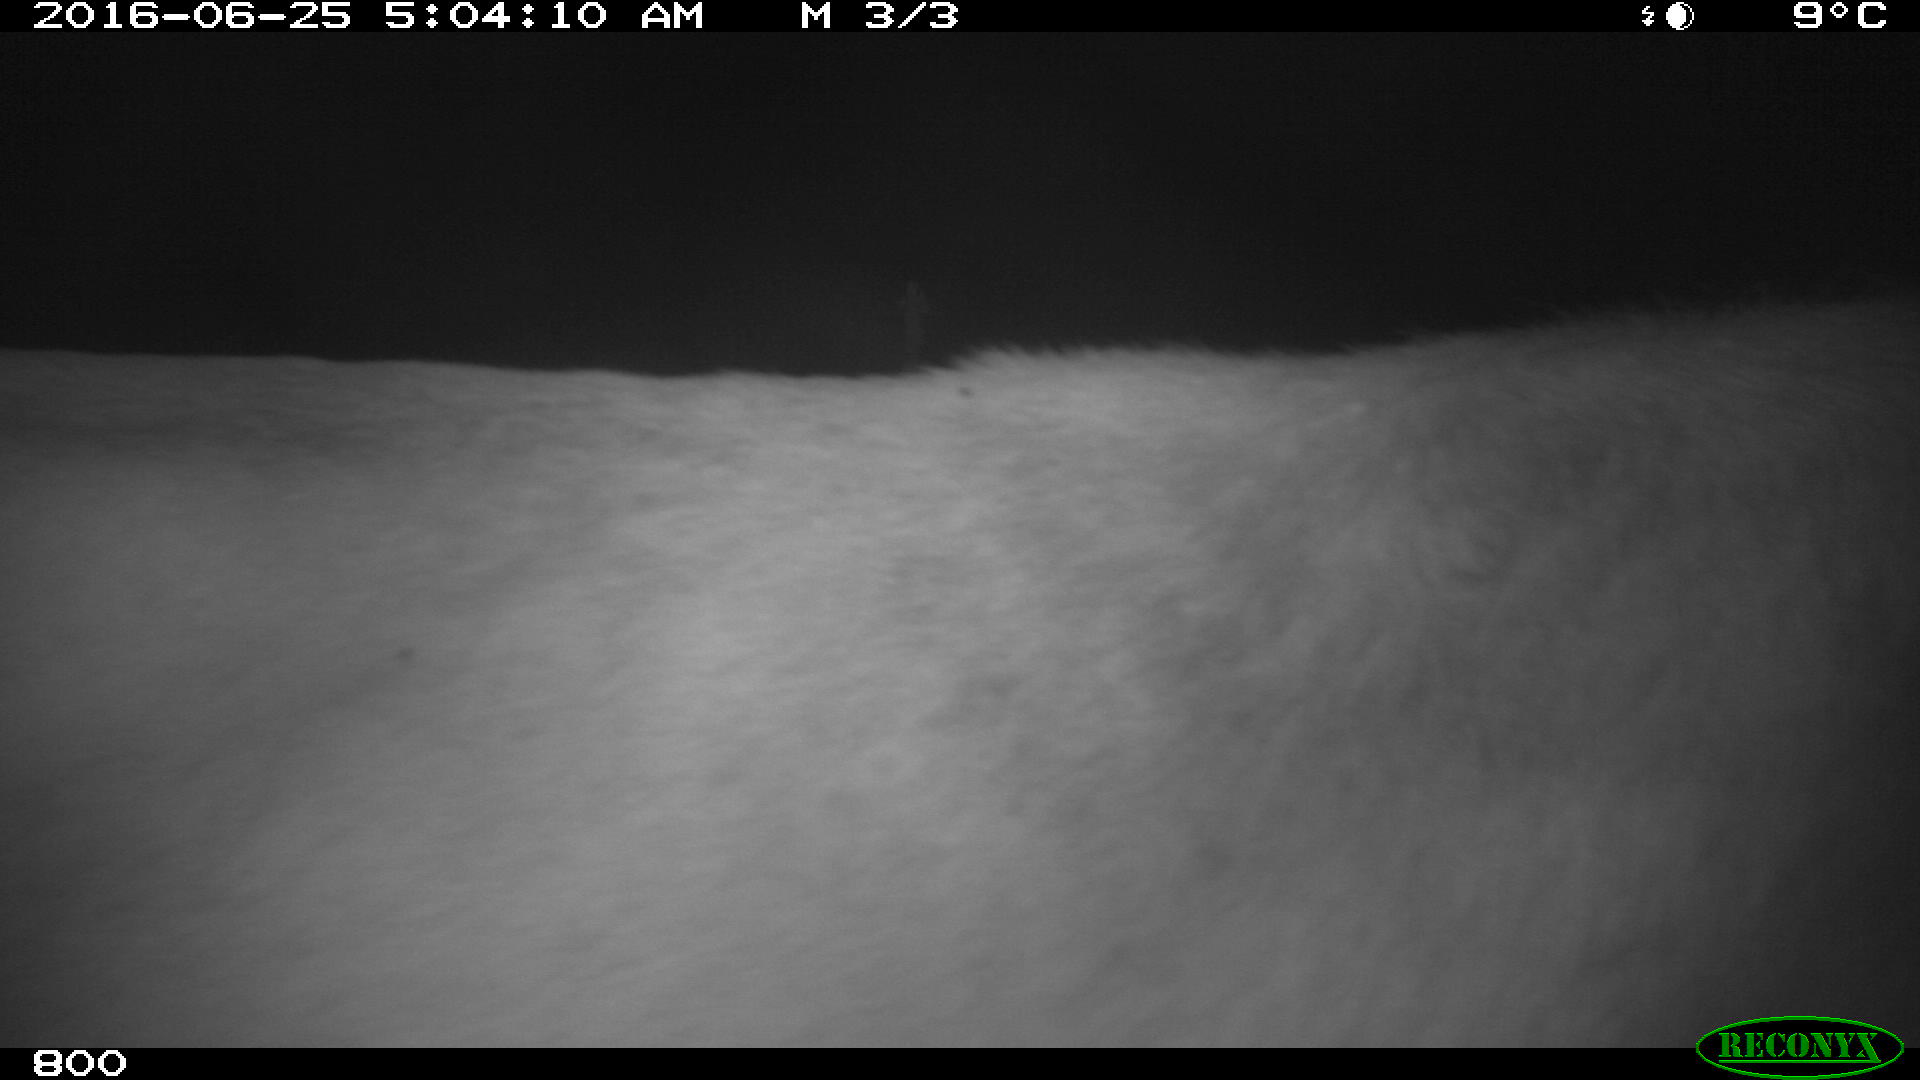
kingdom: Animalia
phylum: Chordata
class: Mammalia
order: Artiodactyla
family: Bovidae
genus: Bos
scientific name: Bos taurus
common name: Domesticated cattle
